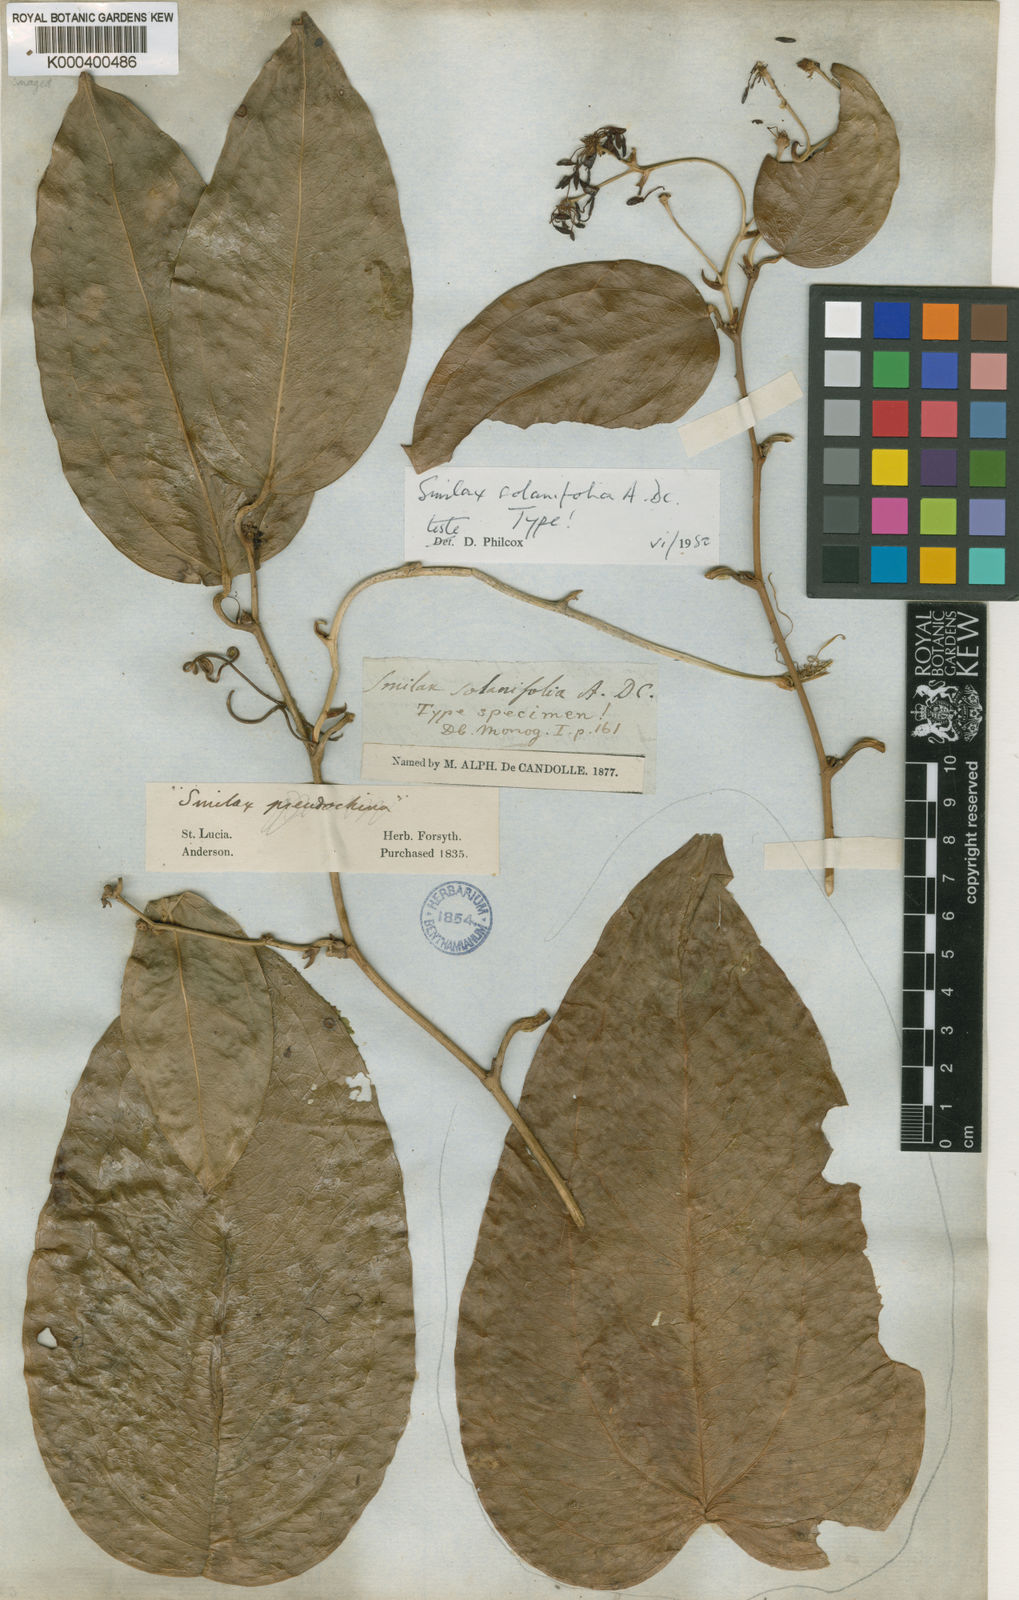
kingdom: Plantae
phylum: Tracheophyta
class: Liliopsida
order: Liliales
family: Smilacaceae
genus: Smilax
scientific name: Smilax solanifolia
